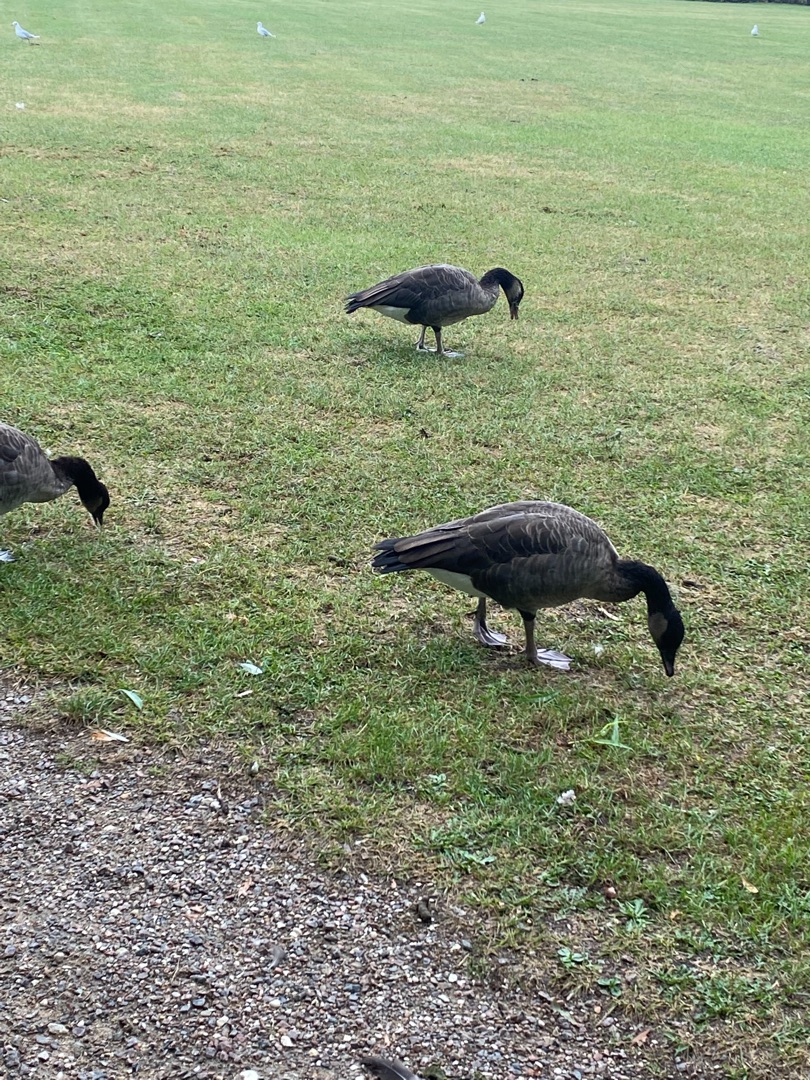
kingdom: Animalia
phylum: Chordata
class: Aves
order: Anseriformes
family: Anatidae
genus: Branta
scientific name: Branta canadensis
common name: Canadagås
